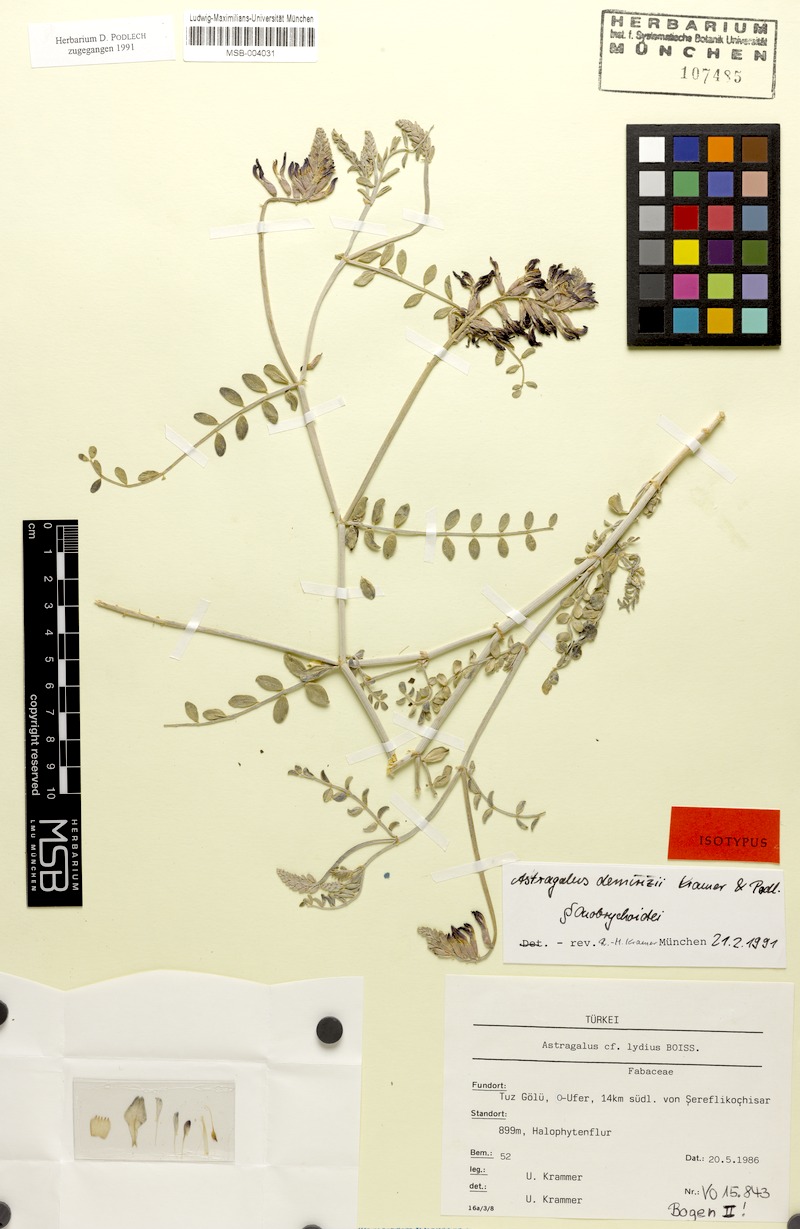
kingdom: Plantae
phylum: Tracheophyta
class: Magnoliopsida
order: Fabales
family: Fabaceae
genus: Astragalus
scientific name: Astragalus demirizii
